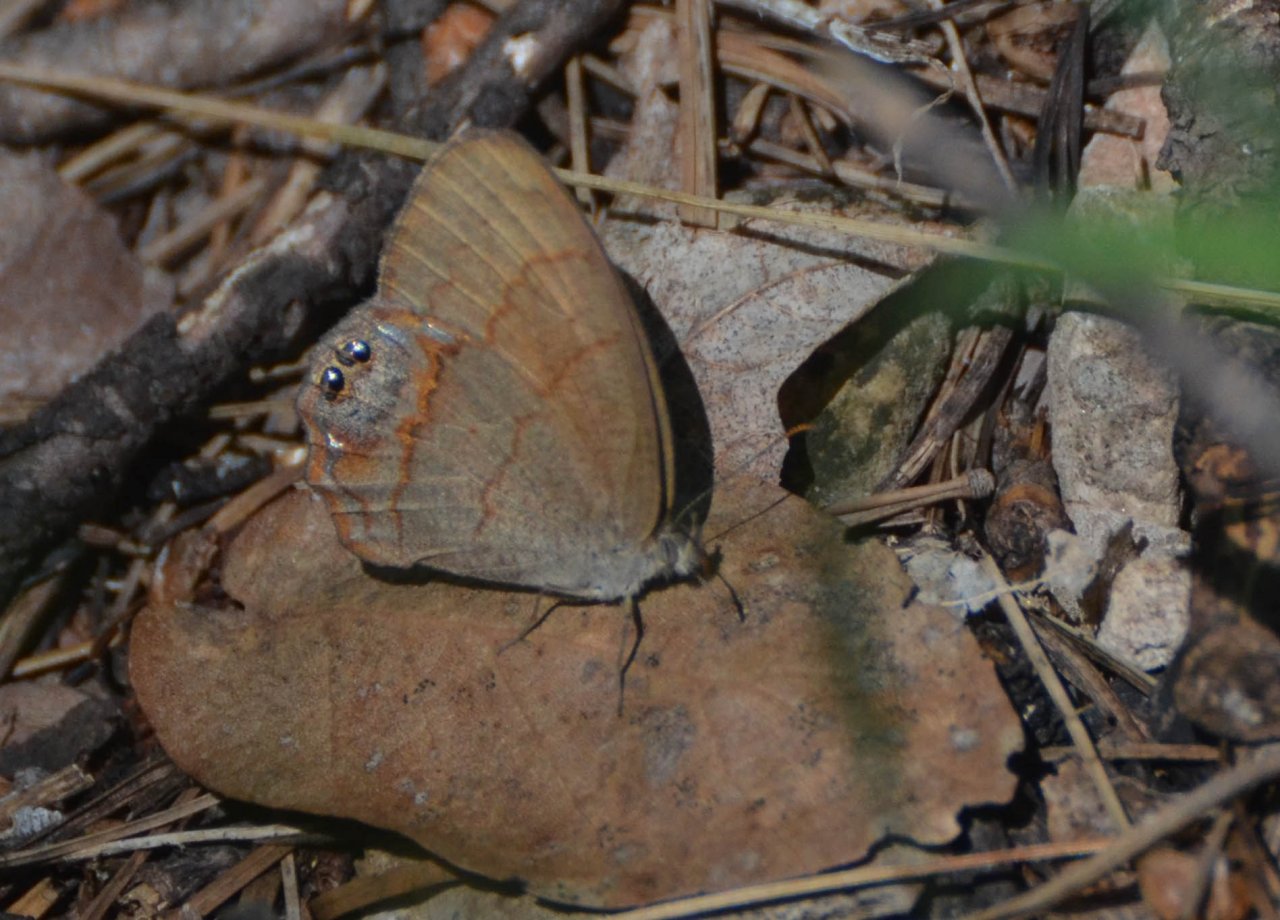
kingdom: Animalia
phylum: Arthropoda
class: Insecta
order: Lepidoptera
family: Nymphalidae
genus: Euptychia
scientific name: Euptychia pyracmon
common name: Nabokov's Satyr
